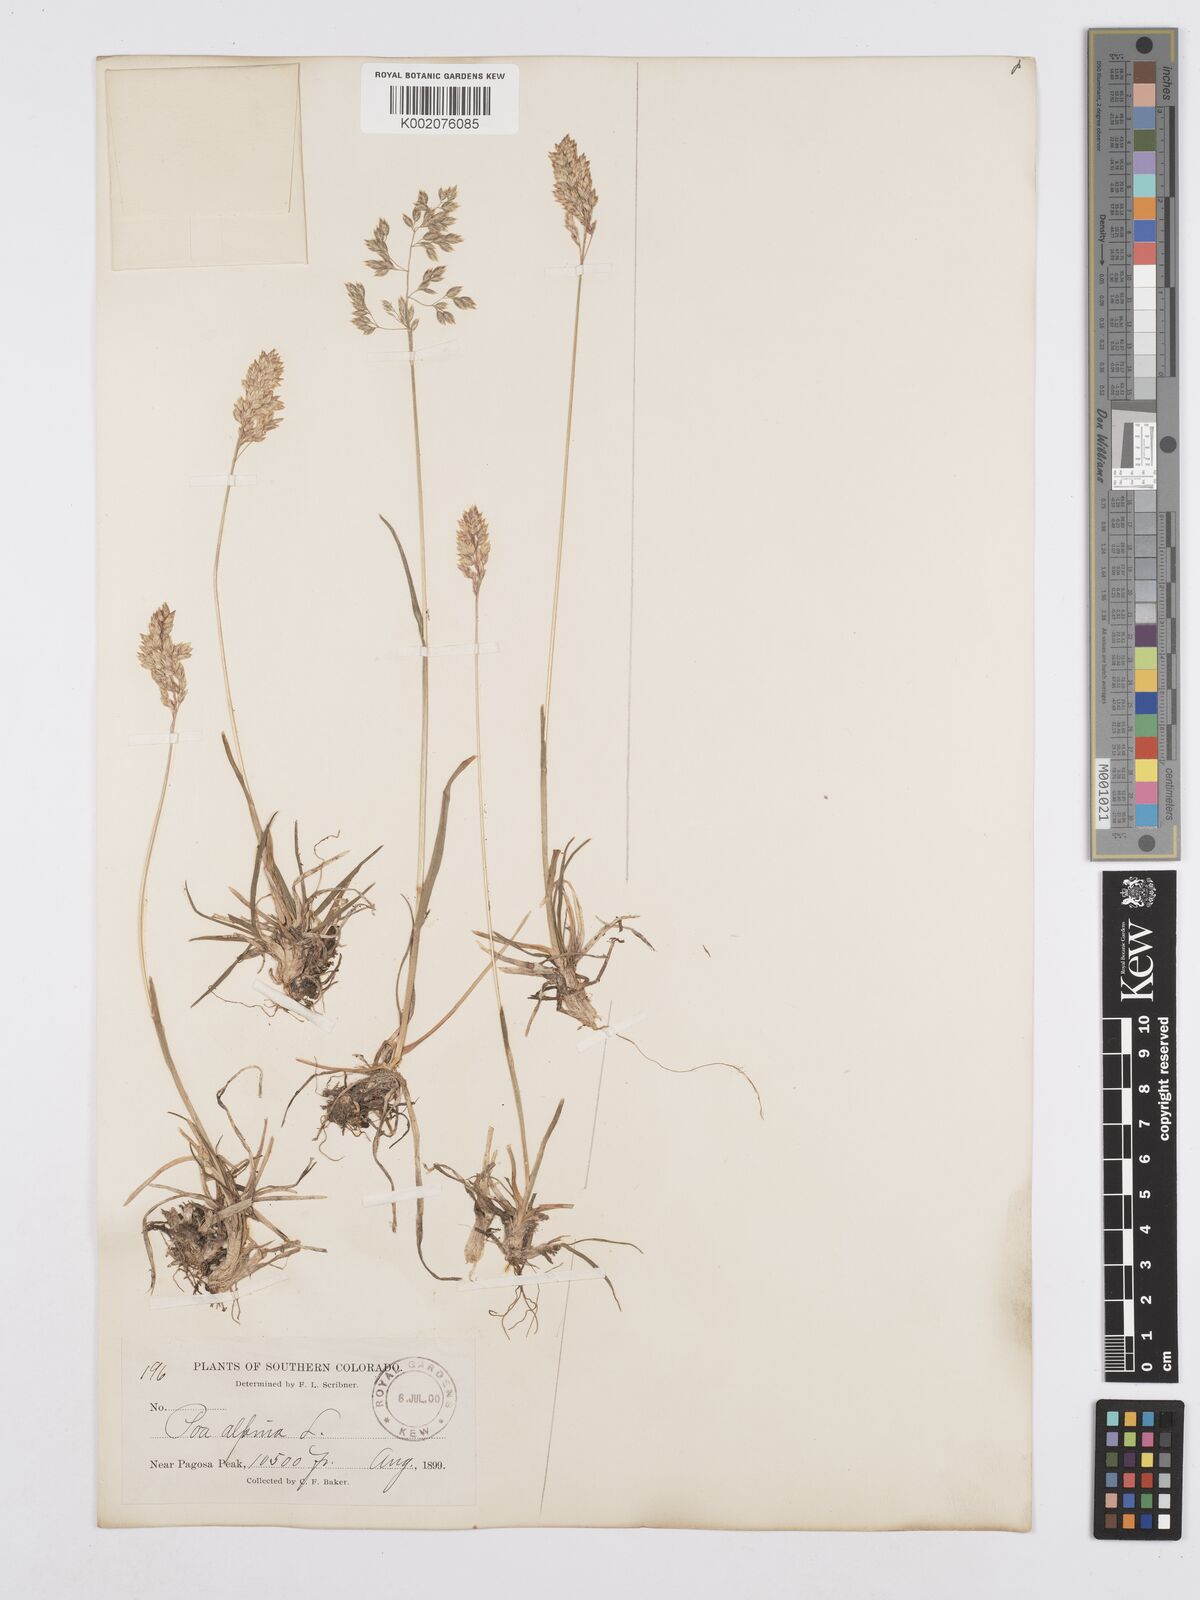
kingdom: Plantae
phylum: Tracheophyta
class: Liliopsida
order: Poales
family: Poaceae
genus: Poa
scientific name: Poa alpina
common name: Alpine bluegrass
